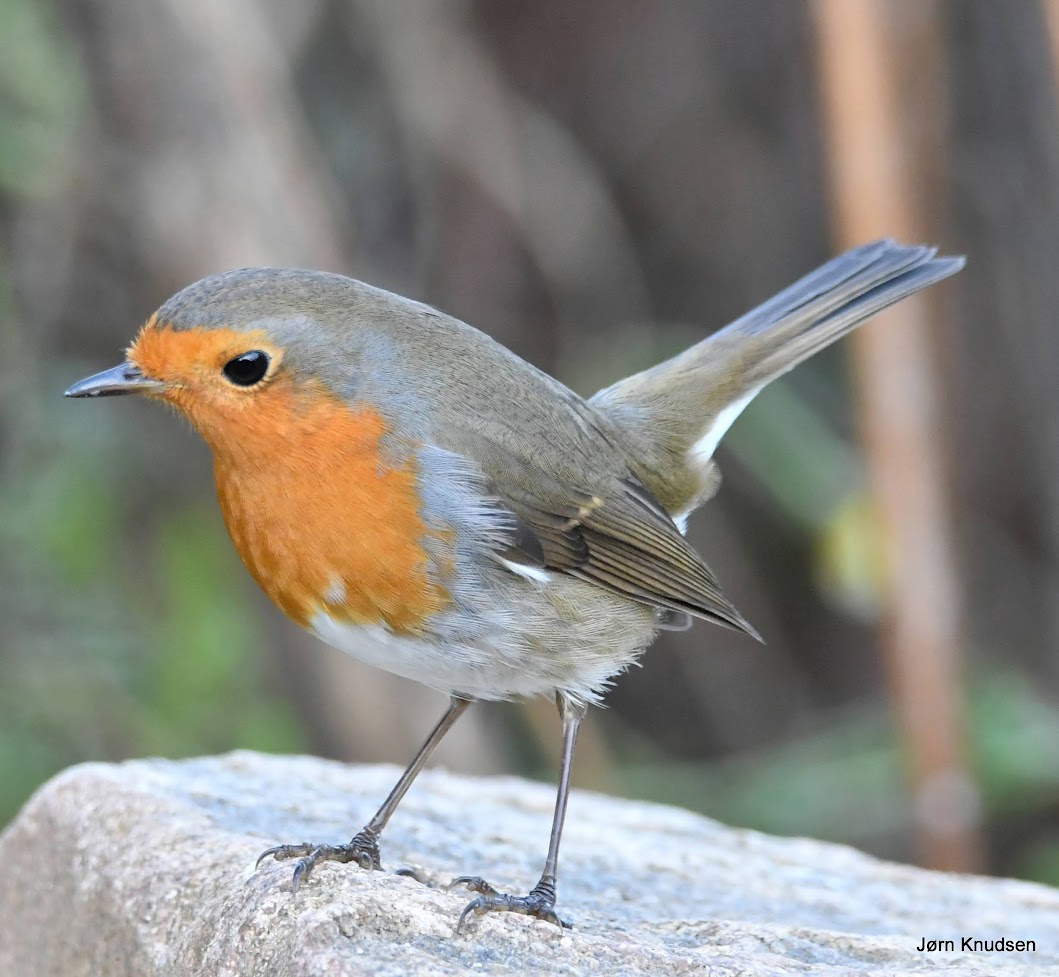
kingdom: Animalia
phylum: Chordata
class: Aves
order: Passeriformes
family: Muscicapidae
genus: Erithacus
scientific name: Erithacus rubecula
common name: Rødhals/rødkælk
